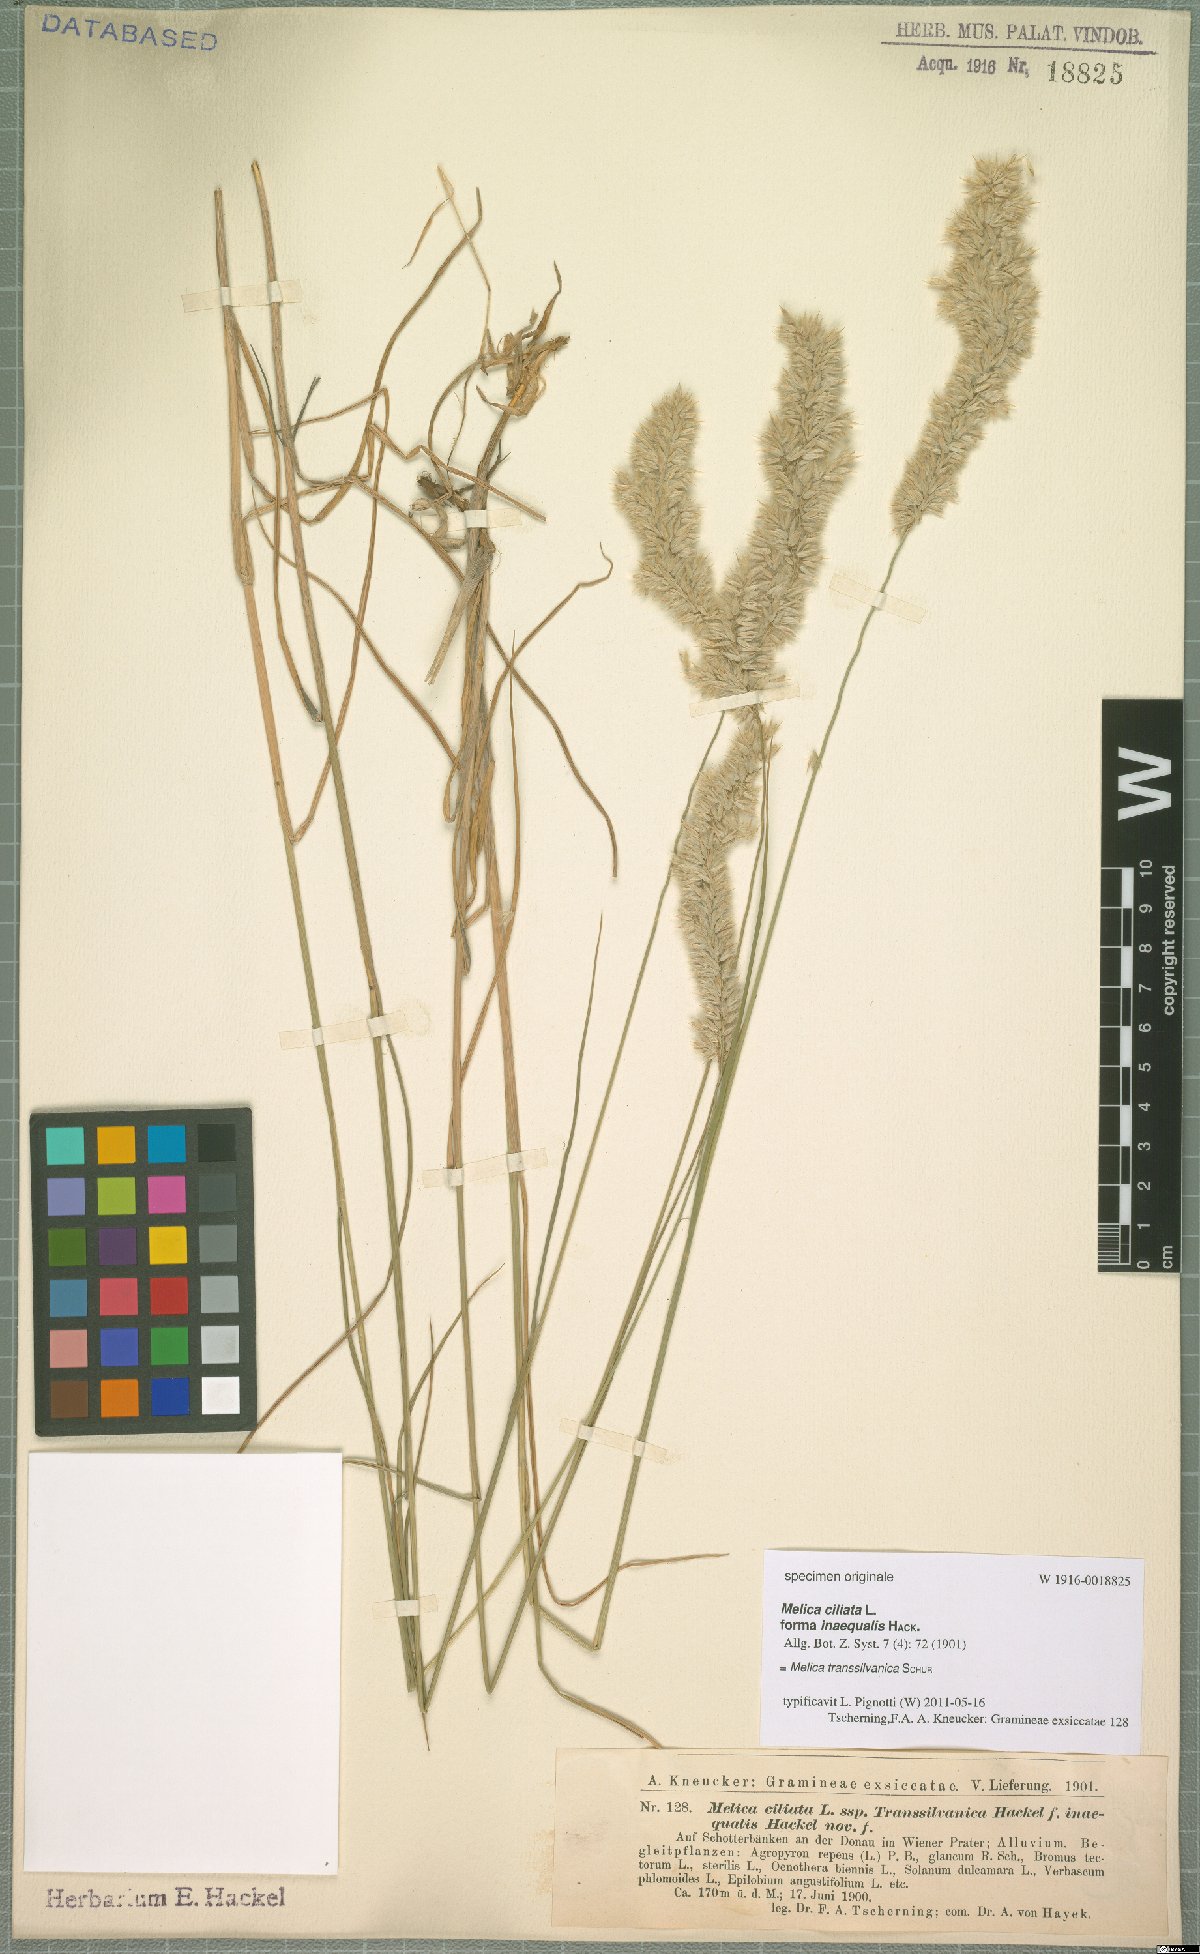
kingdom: Plantae
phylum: Tracheophyta
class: Liliopsida
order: Poales
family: Poaceae
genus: Melica
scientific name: Melica transsilvanica
